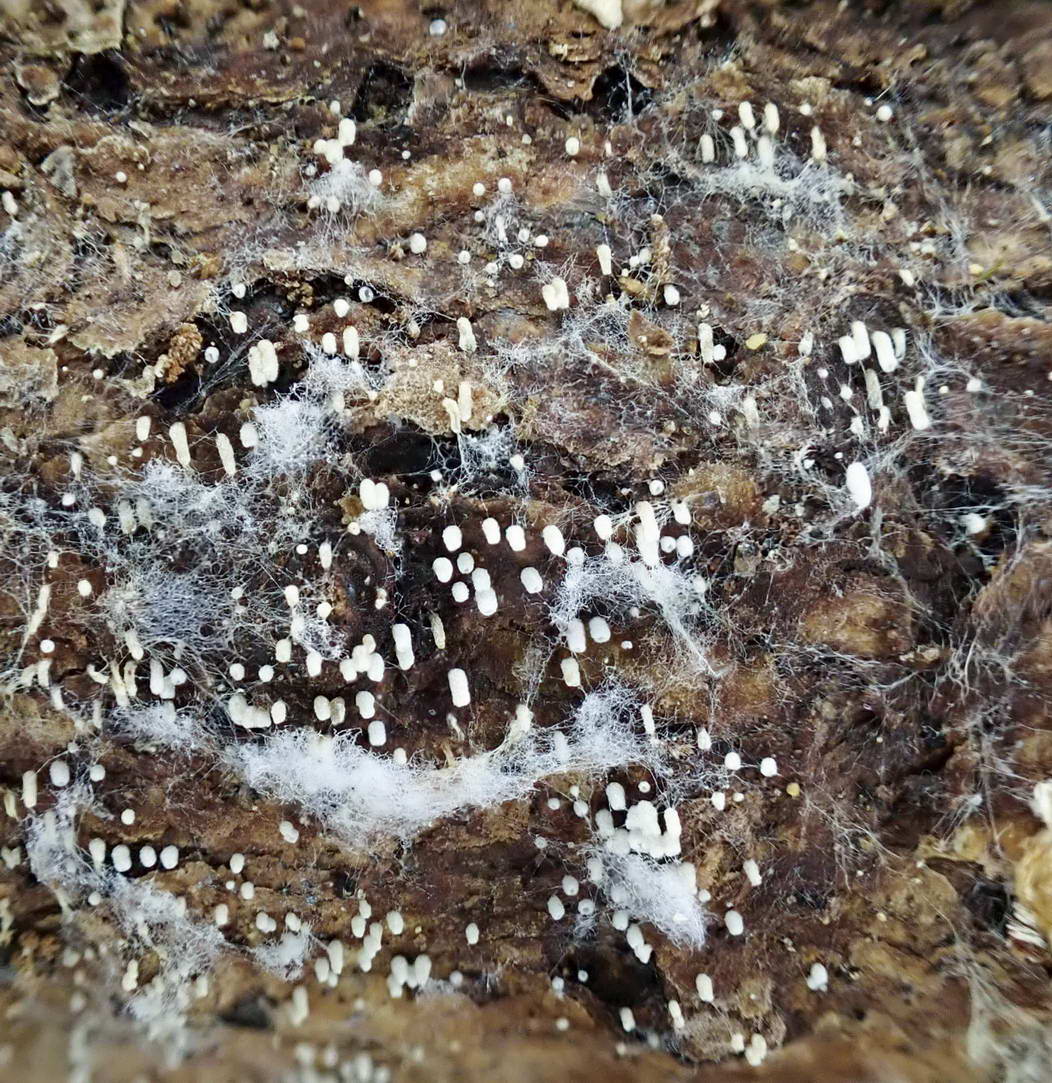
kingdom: Fungi
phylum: Basidiomycota
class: Agaricomycetes
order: Agaricales
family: Marasmiaceae
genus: Henningsomyces
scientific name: Henningsomyces candidus
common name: glat hængerør
